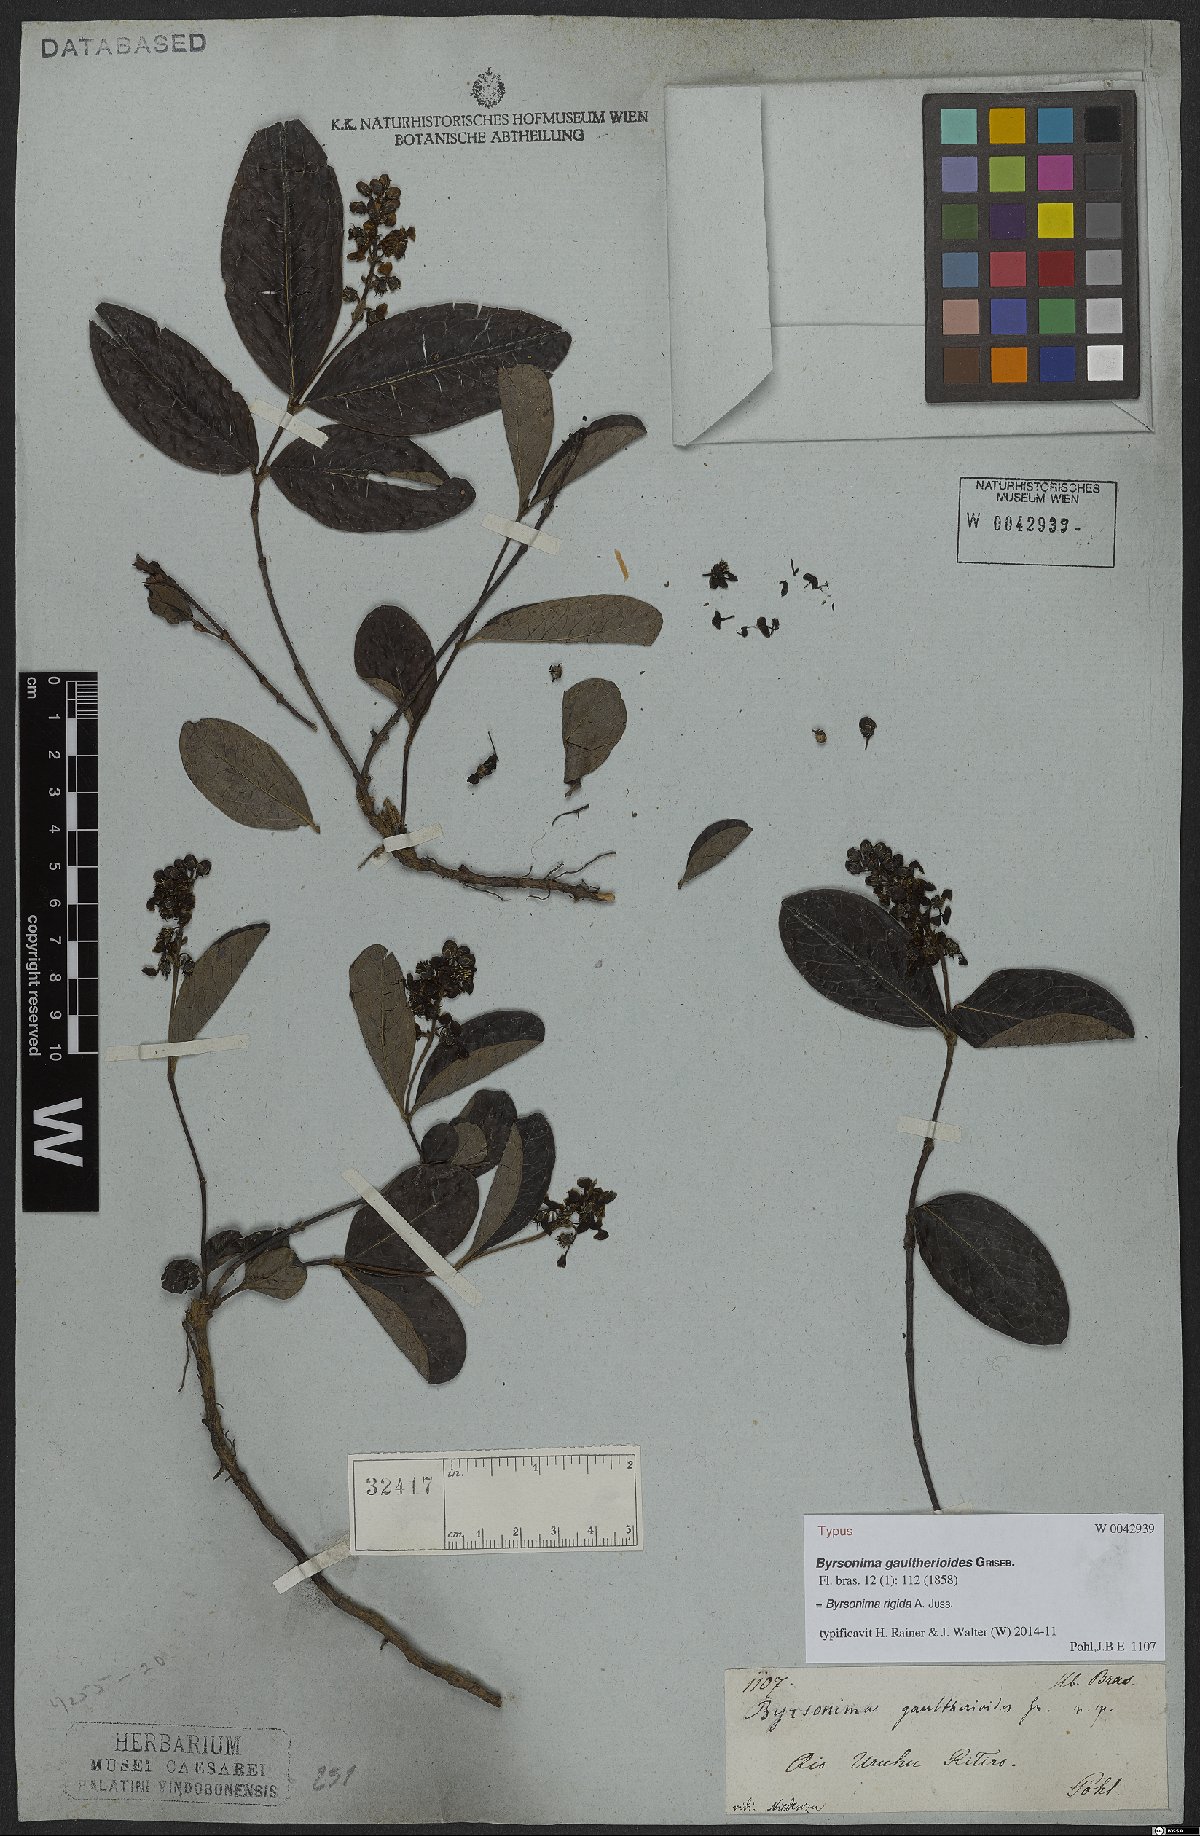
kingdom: Plantae
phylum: Tracheophyta
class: Magnoliopsida
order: Malpighiales
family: Malpighiaceae
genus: Byrsonima
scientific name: Byrsonima rigida
